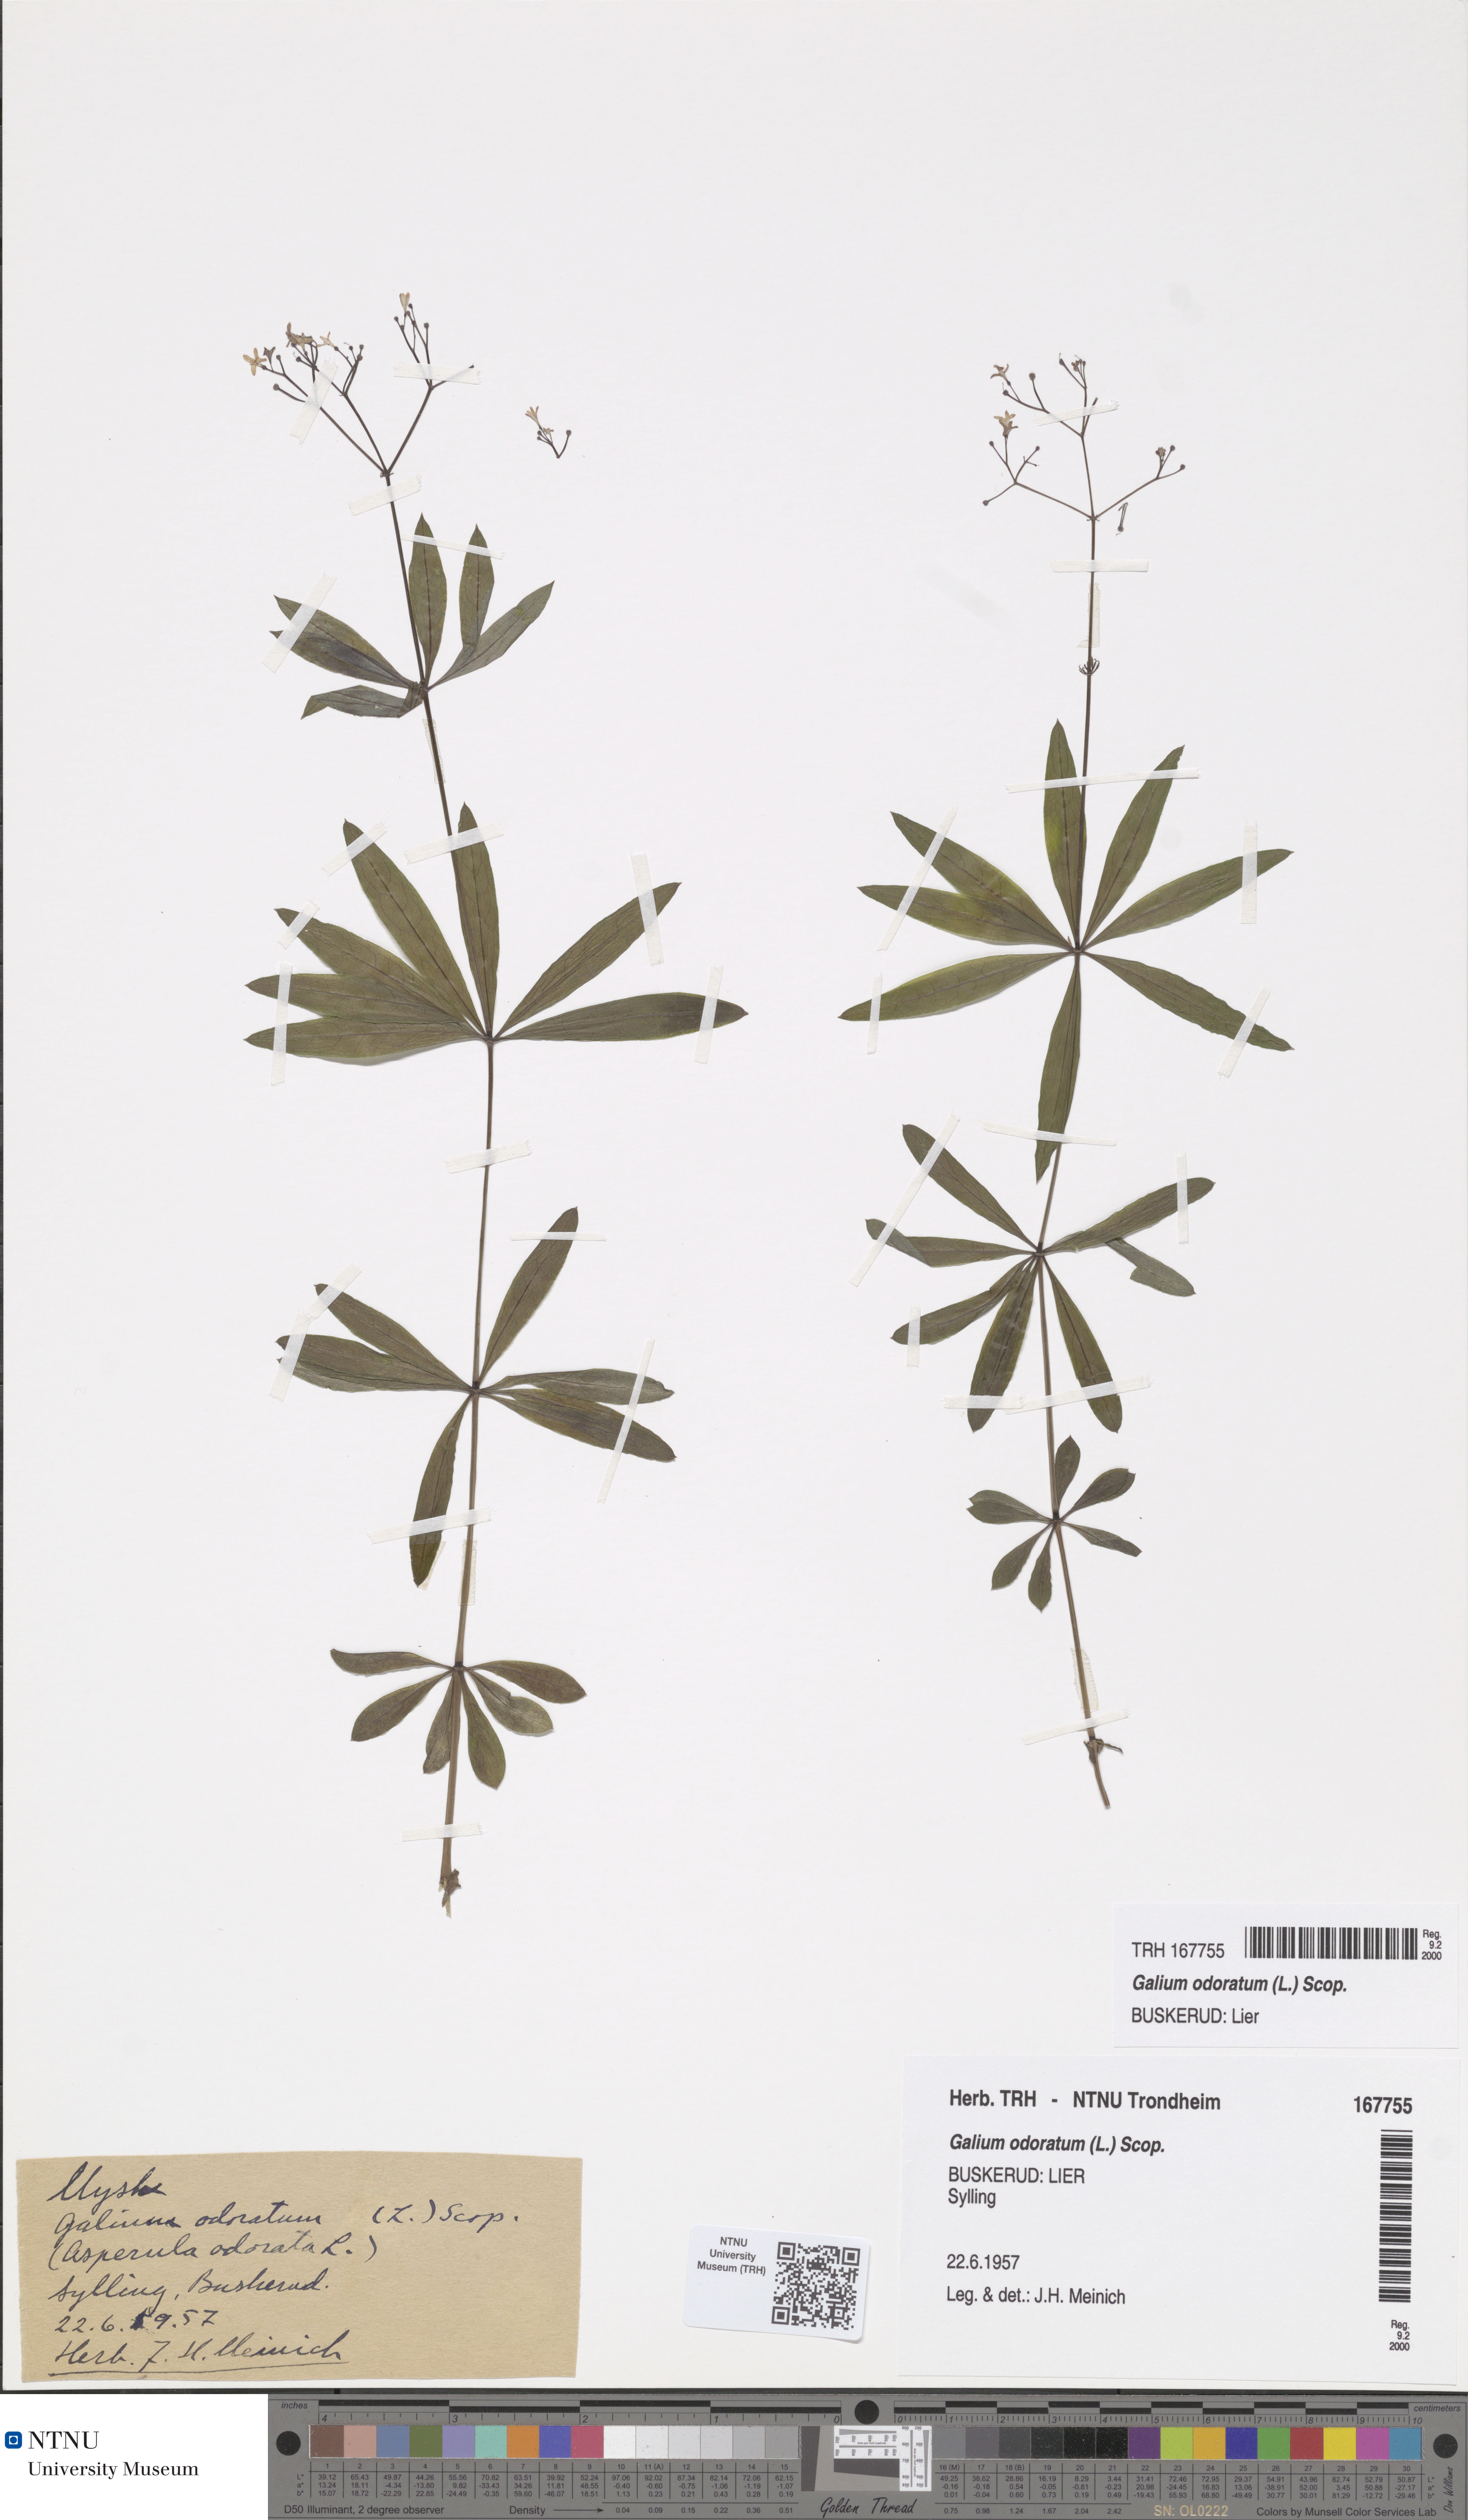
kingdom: Plantae
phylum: Tracheophyta
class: Magnoliopsida
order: Gentianales
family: Rubiaceae
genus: Galium
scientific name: Galium odoratum
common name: Sweet woodruff
